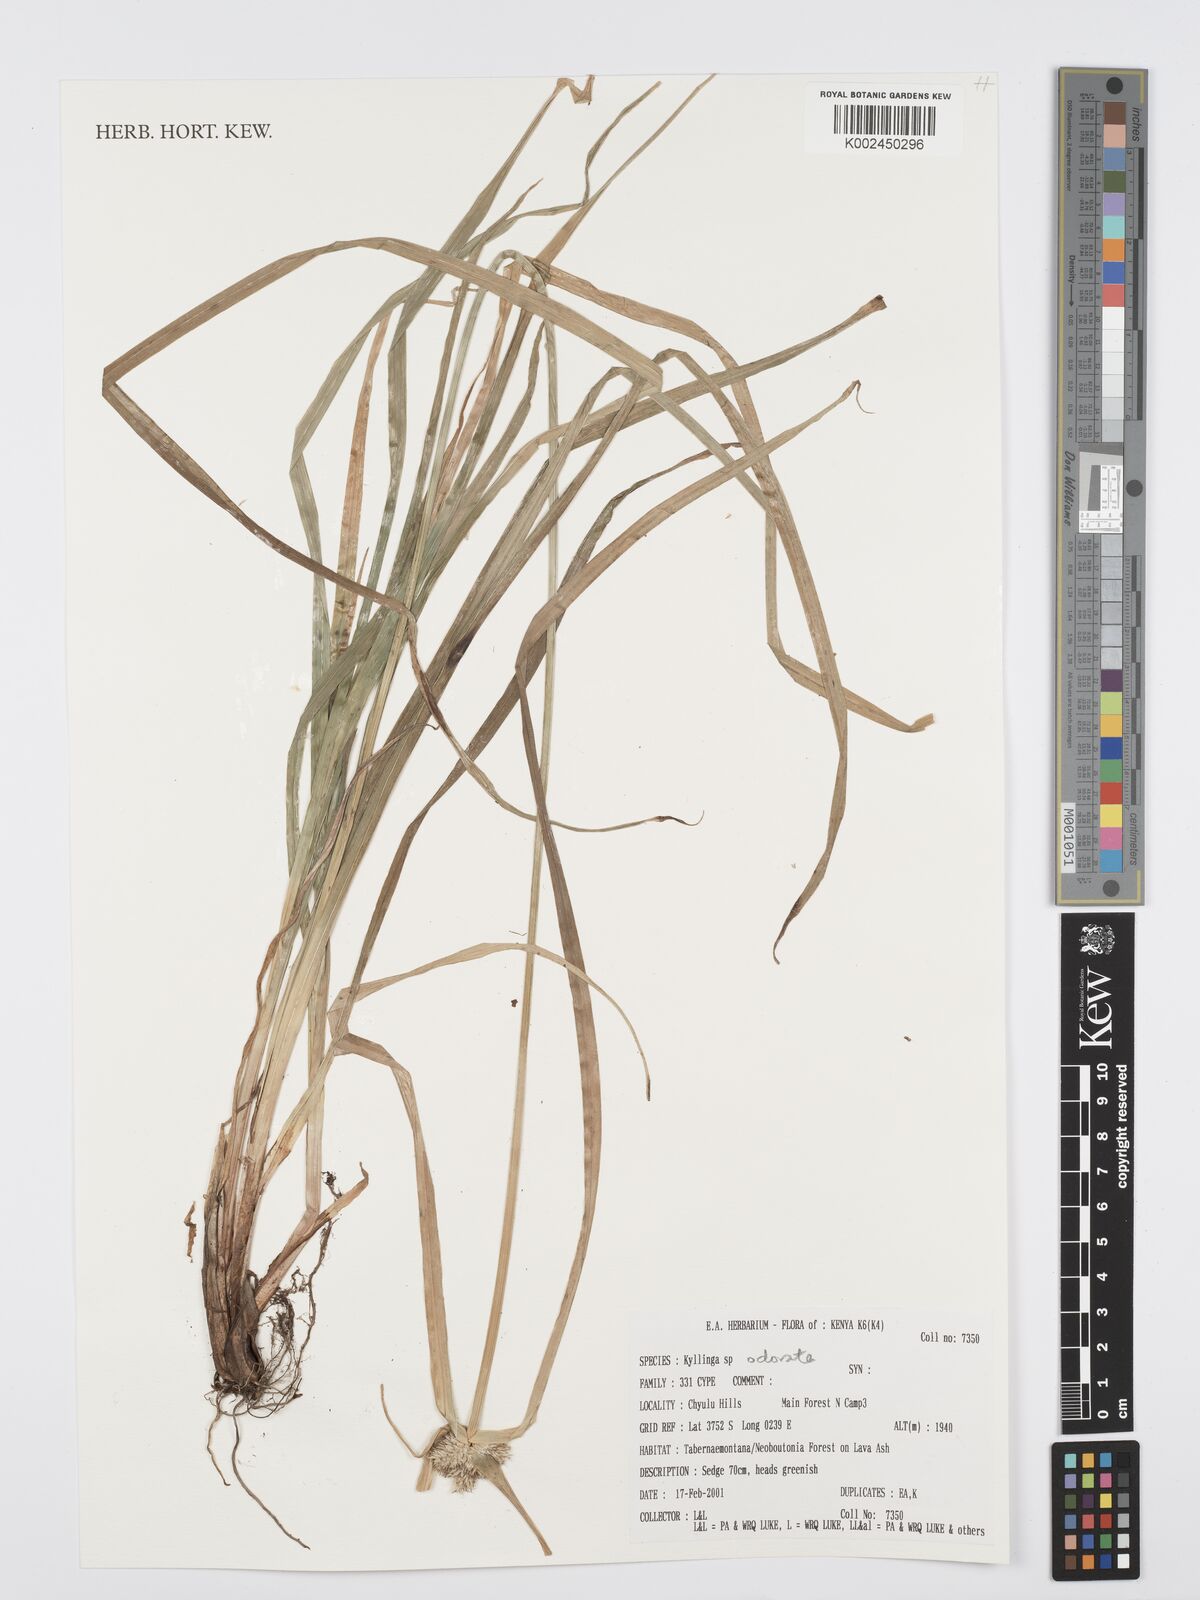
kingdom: Plantae
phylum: Tracheophyta
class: Liliopsida
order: Poales
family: Cyperaceae
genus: Cyperus
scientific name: Cyperus
